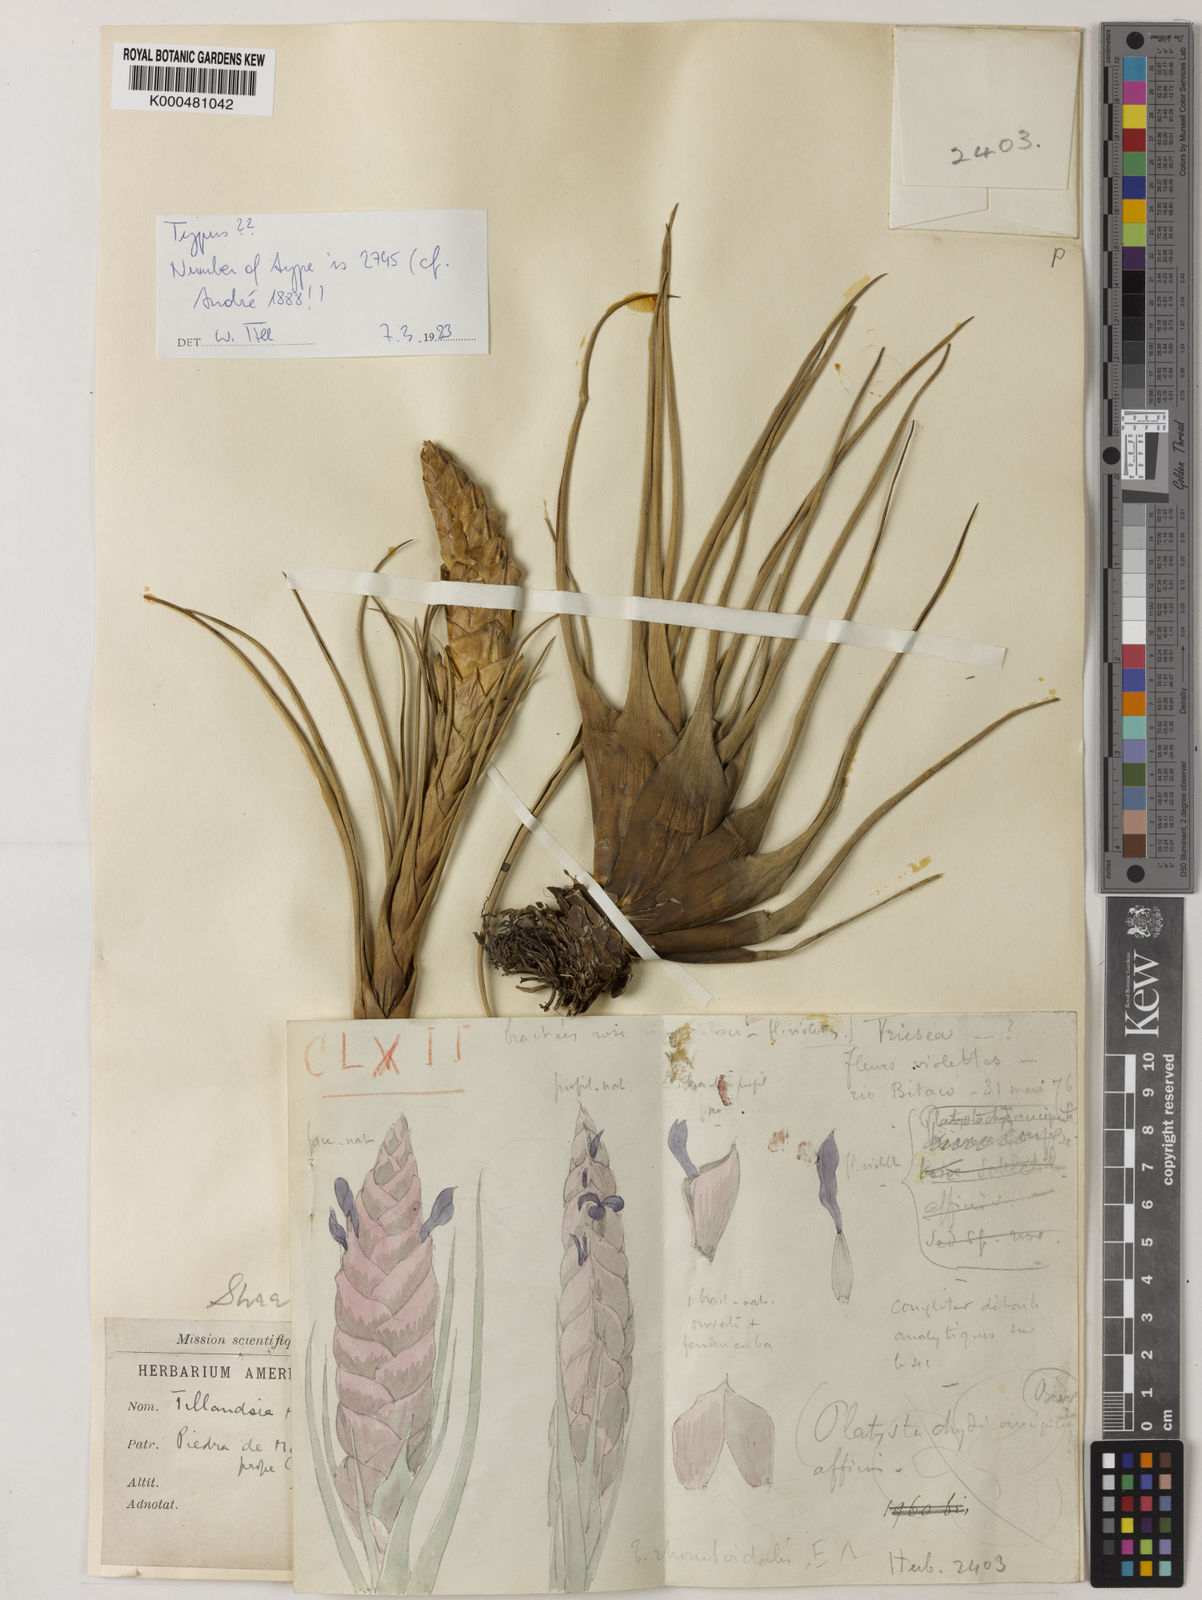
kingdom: Plantae
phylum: Tracheophyta
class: Liliopsida
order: Poales
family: Bromeliaceae
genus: Tillandsia
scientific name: Tillandsia
